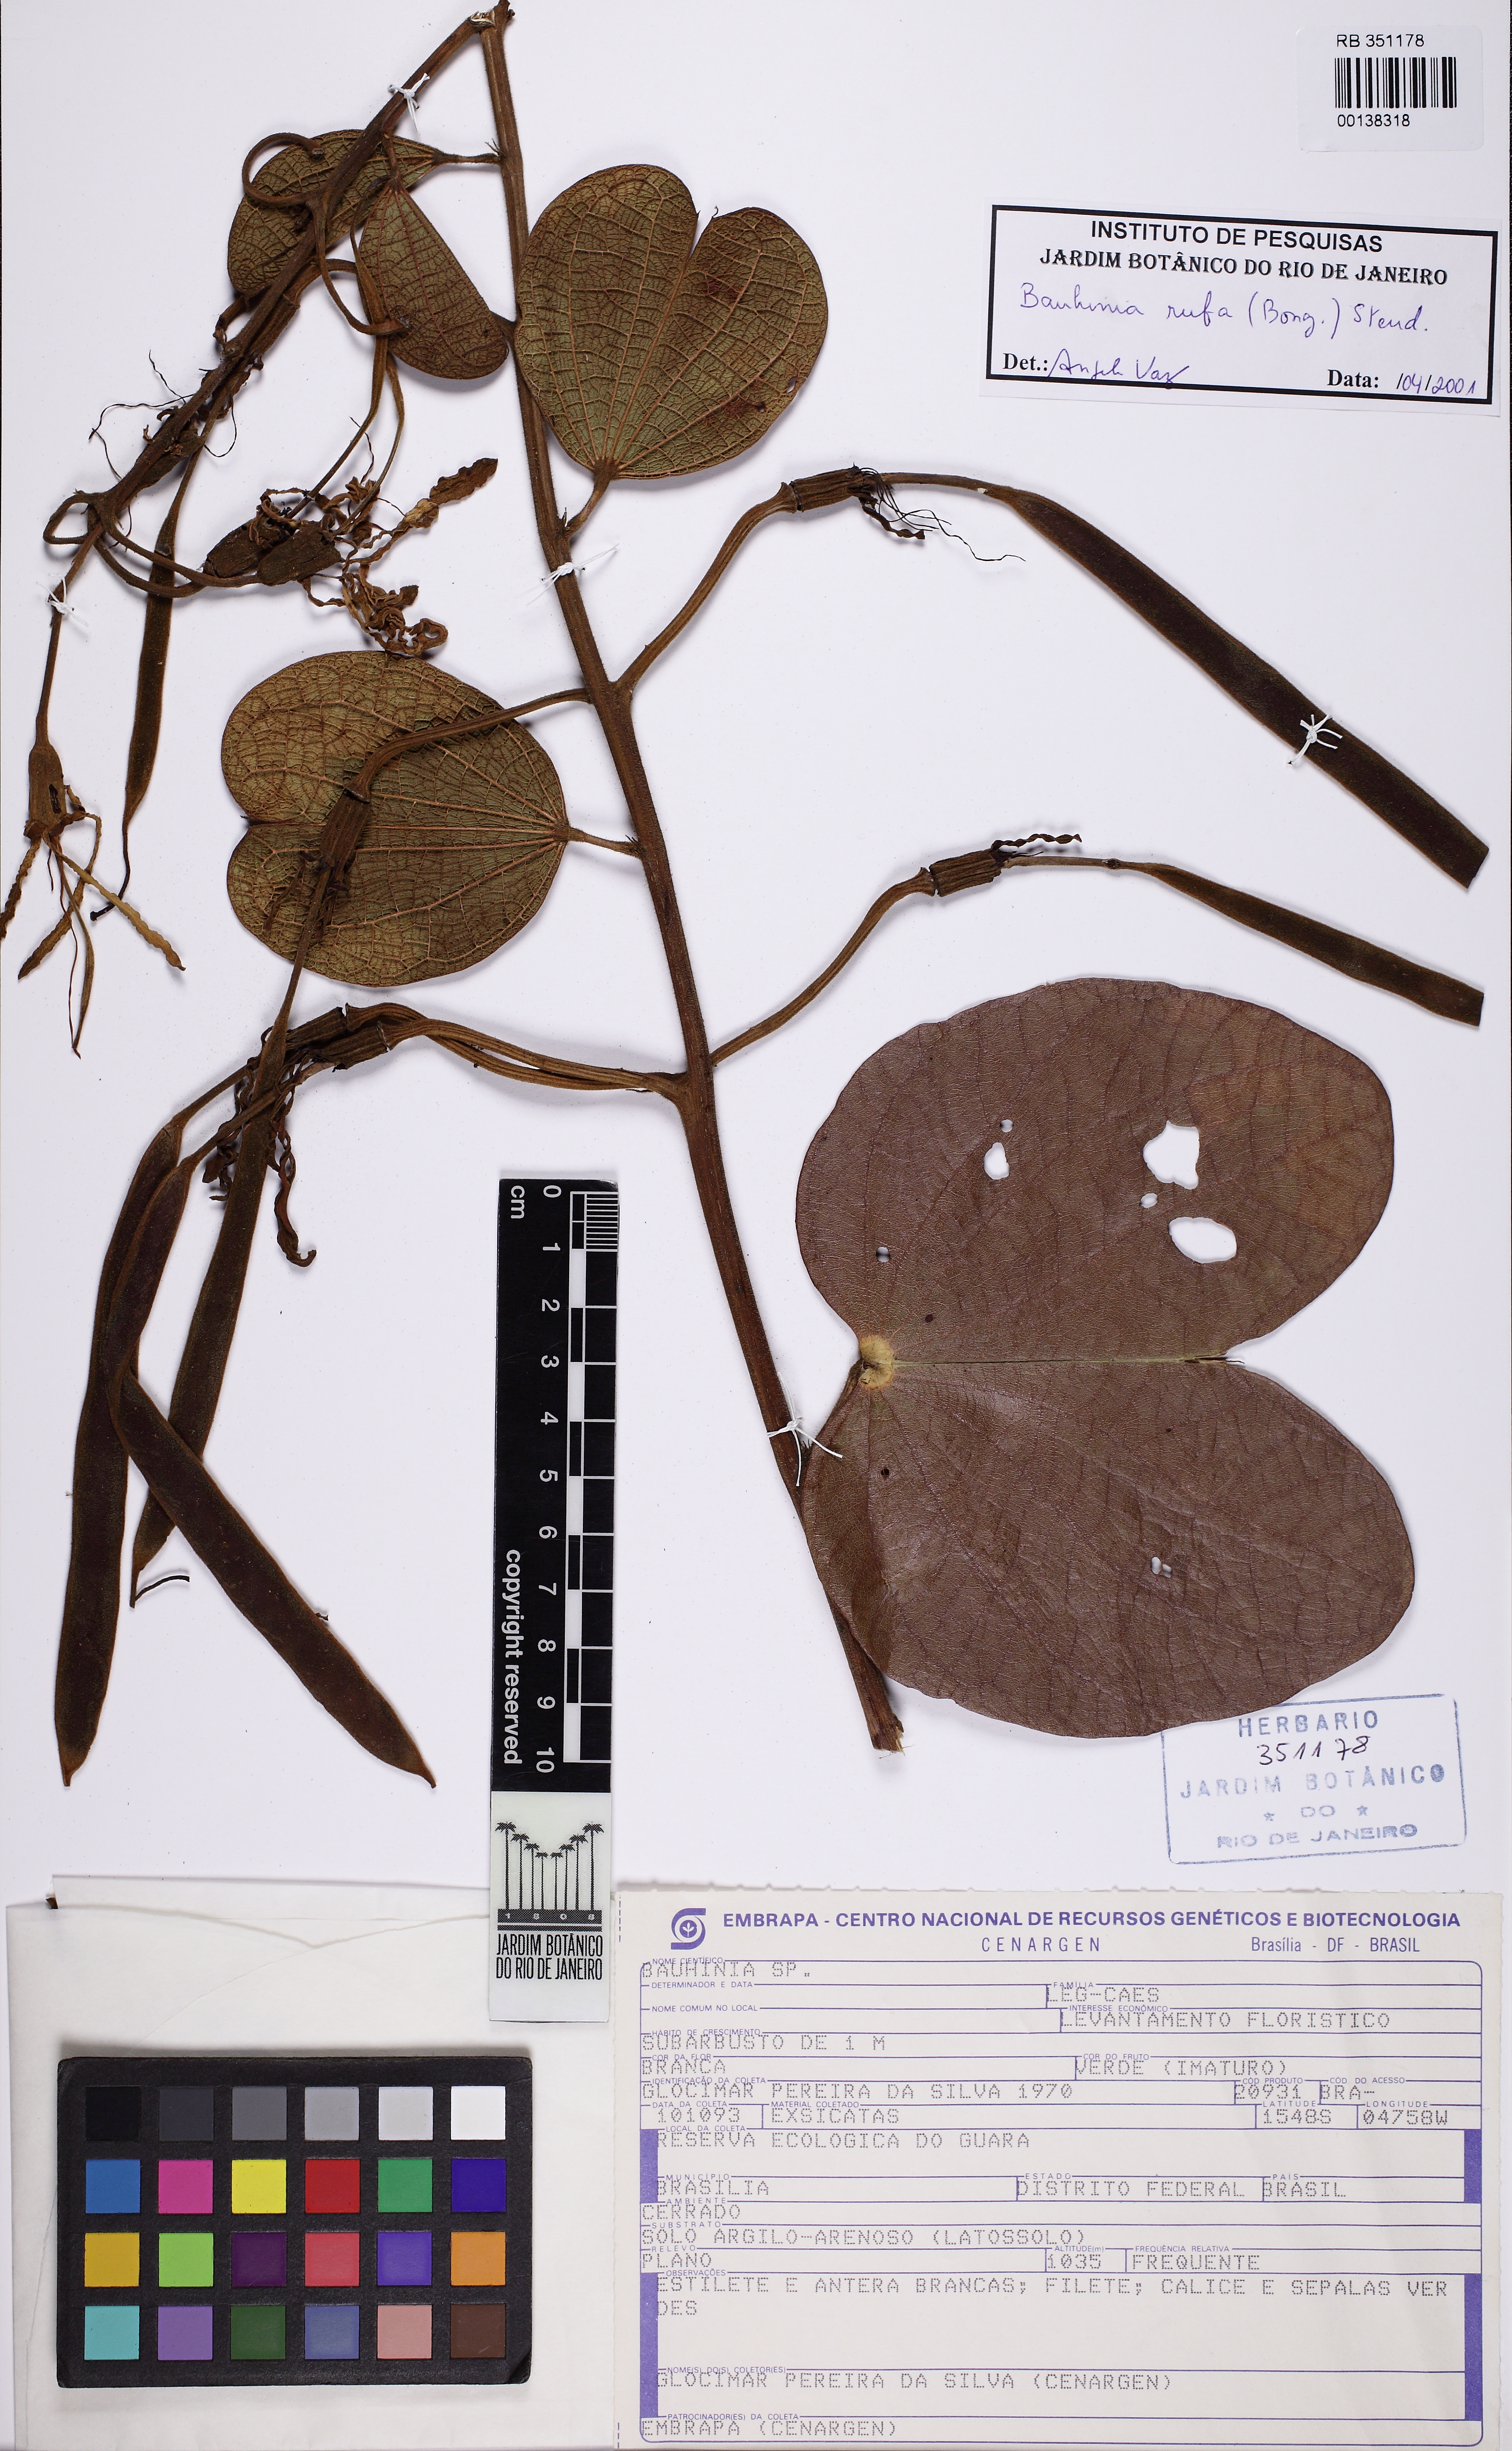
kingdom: Plantae
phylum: Tracheophyta
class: Magnoliopsida
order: Fabales
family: Fabaceae
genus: Bauhinia
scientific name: Bauhinia rufa
